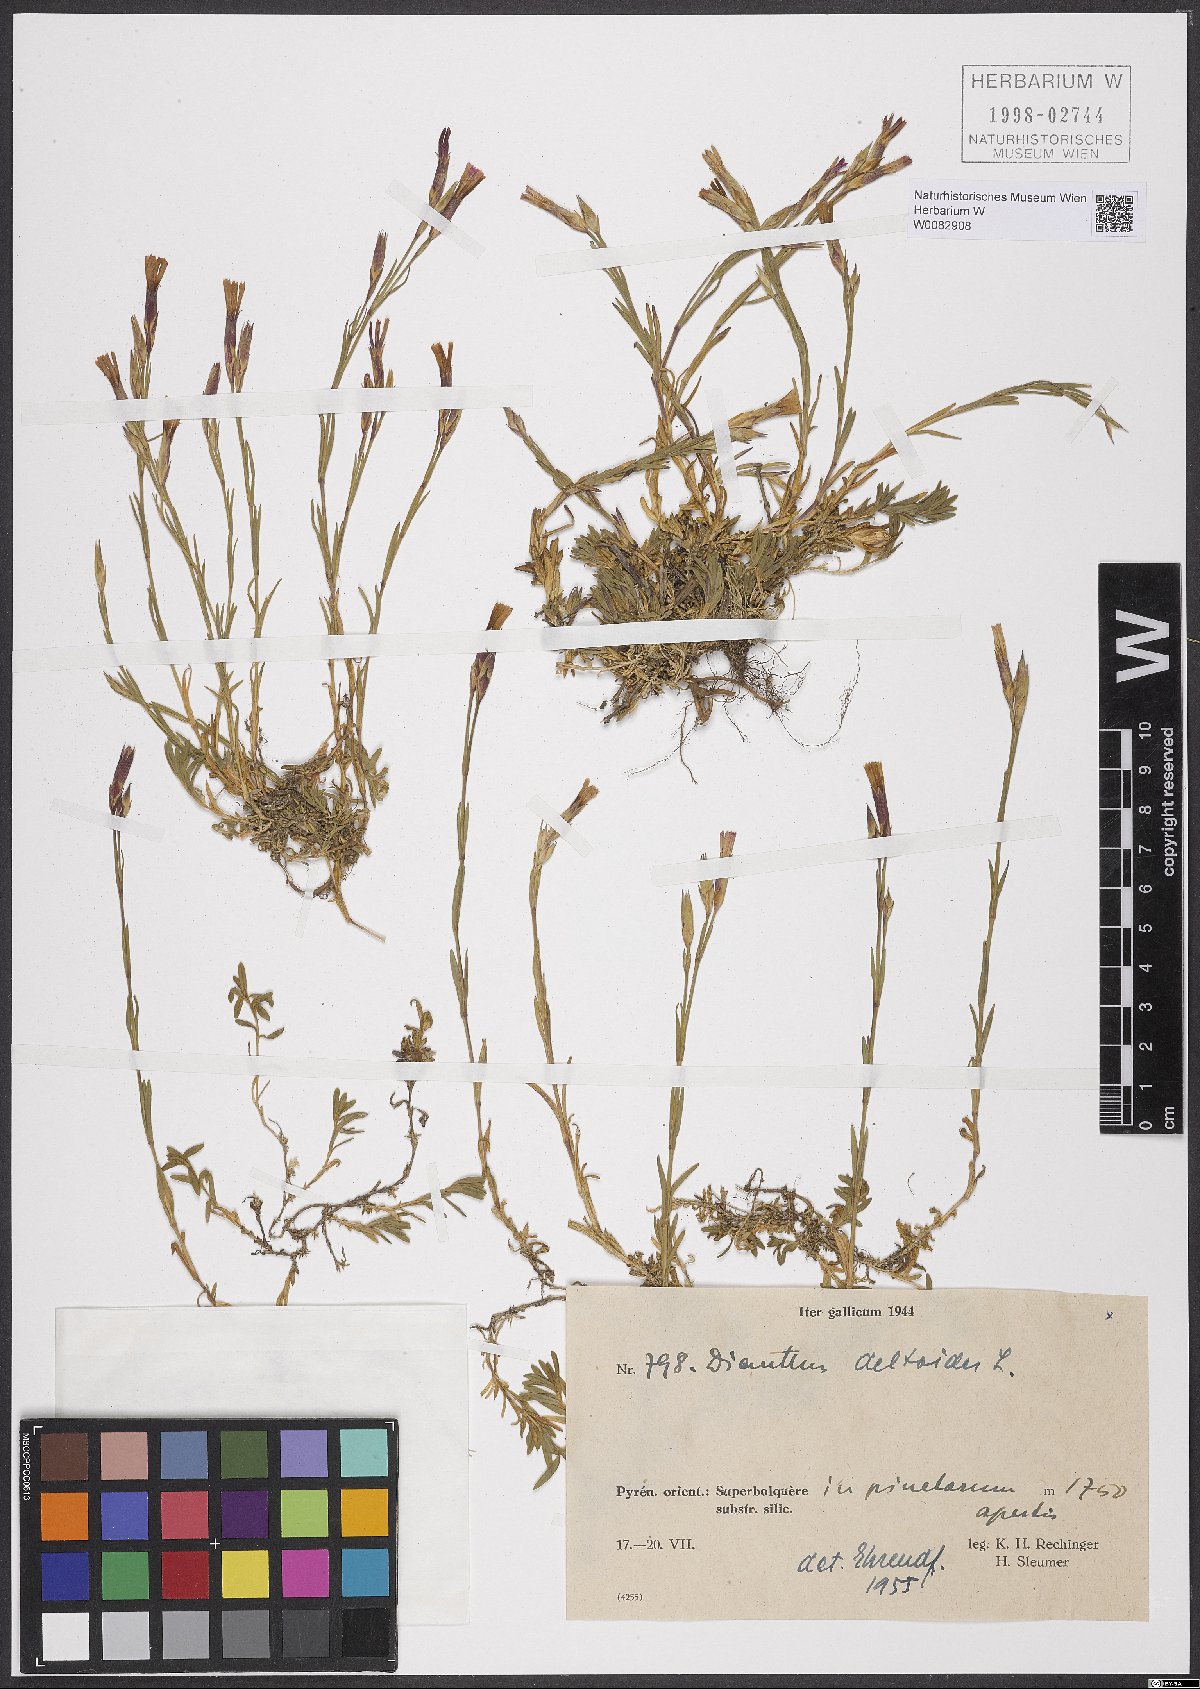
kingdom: Plantae
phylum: Tracheophyta
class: Magnoliopsida
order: Caryophyllales
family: Caryophyllaceae
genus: Dianthus
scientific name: Dianthus deltoides
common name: Maiden pink
